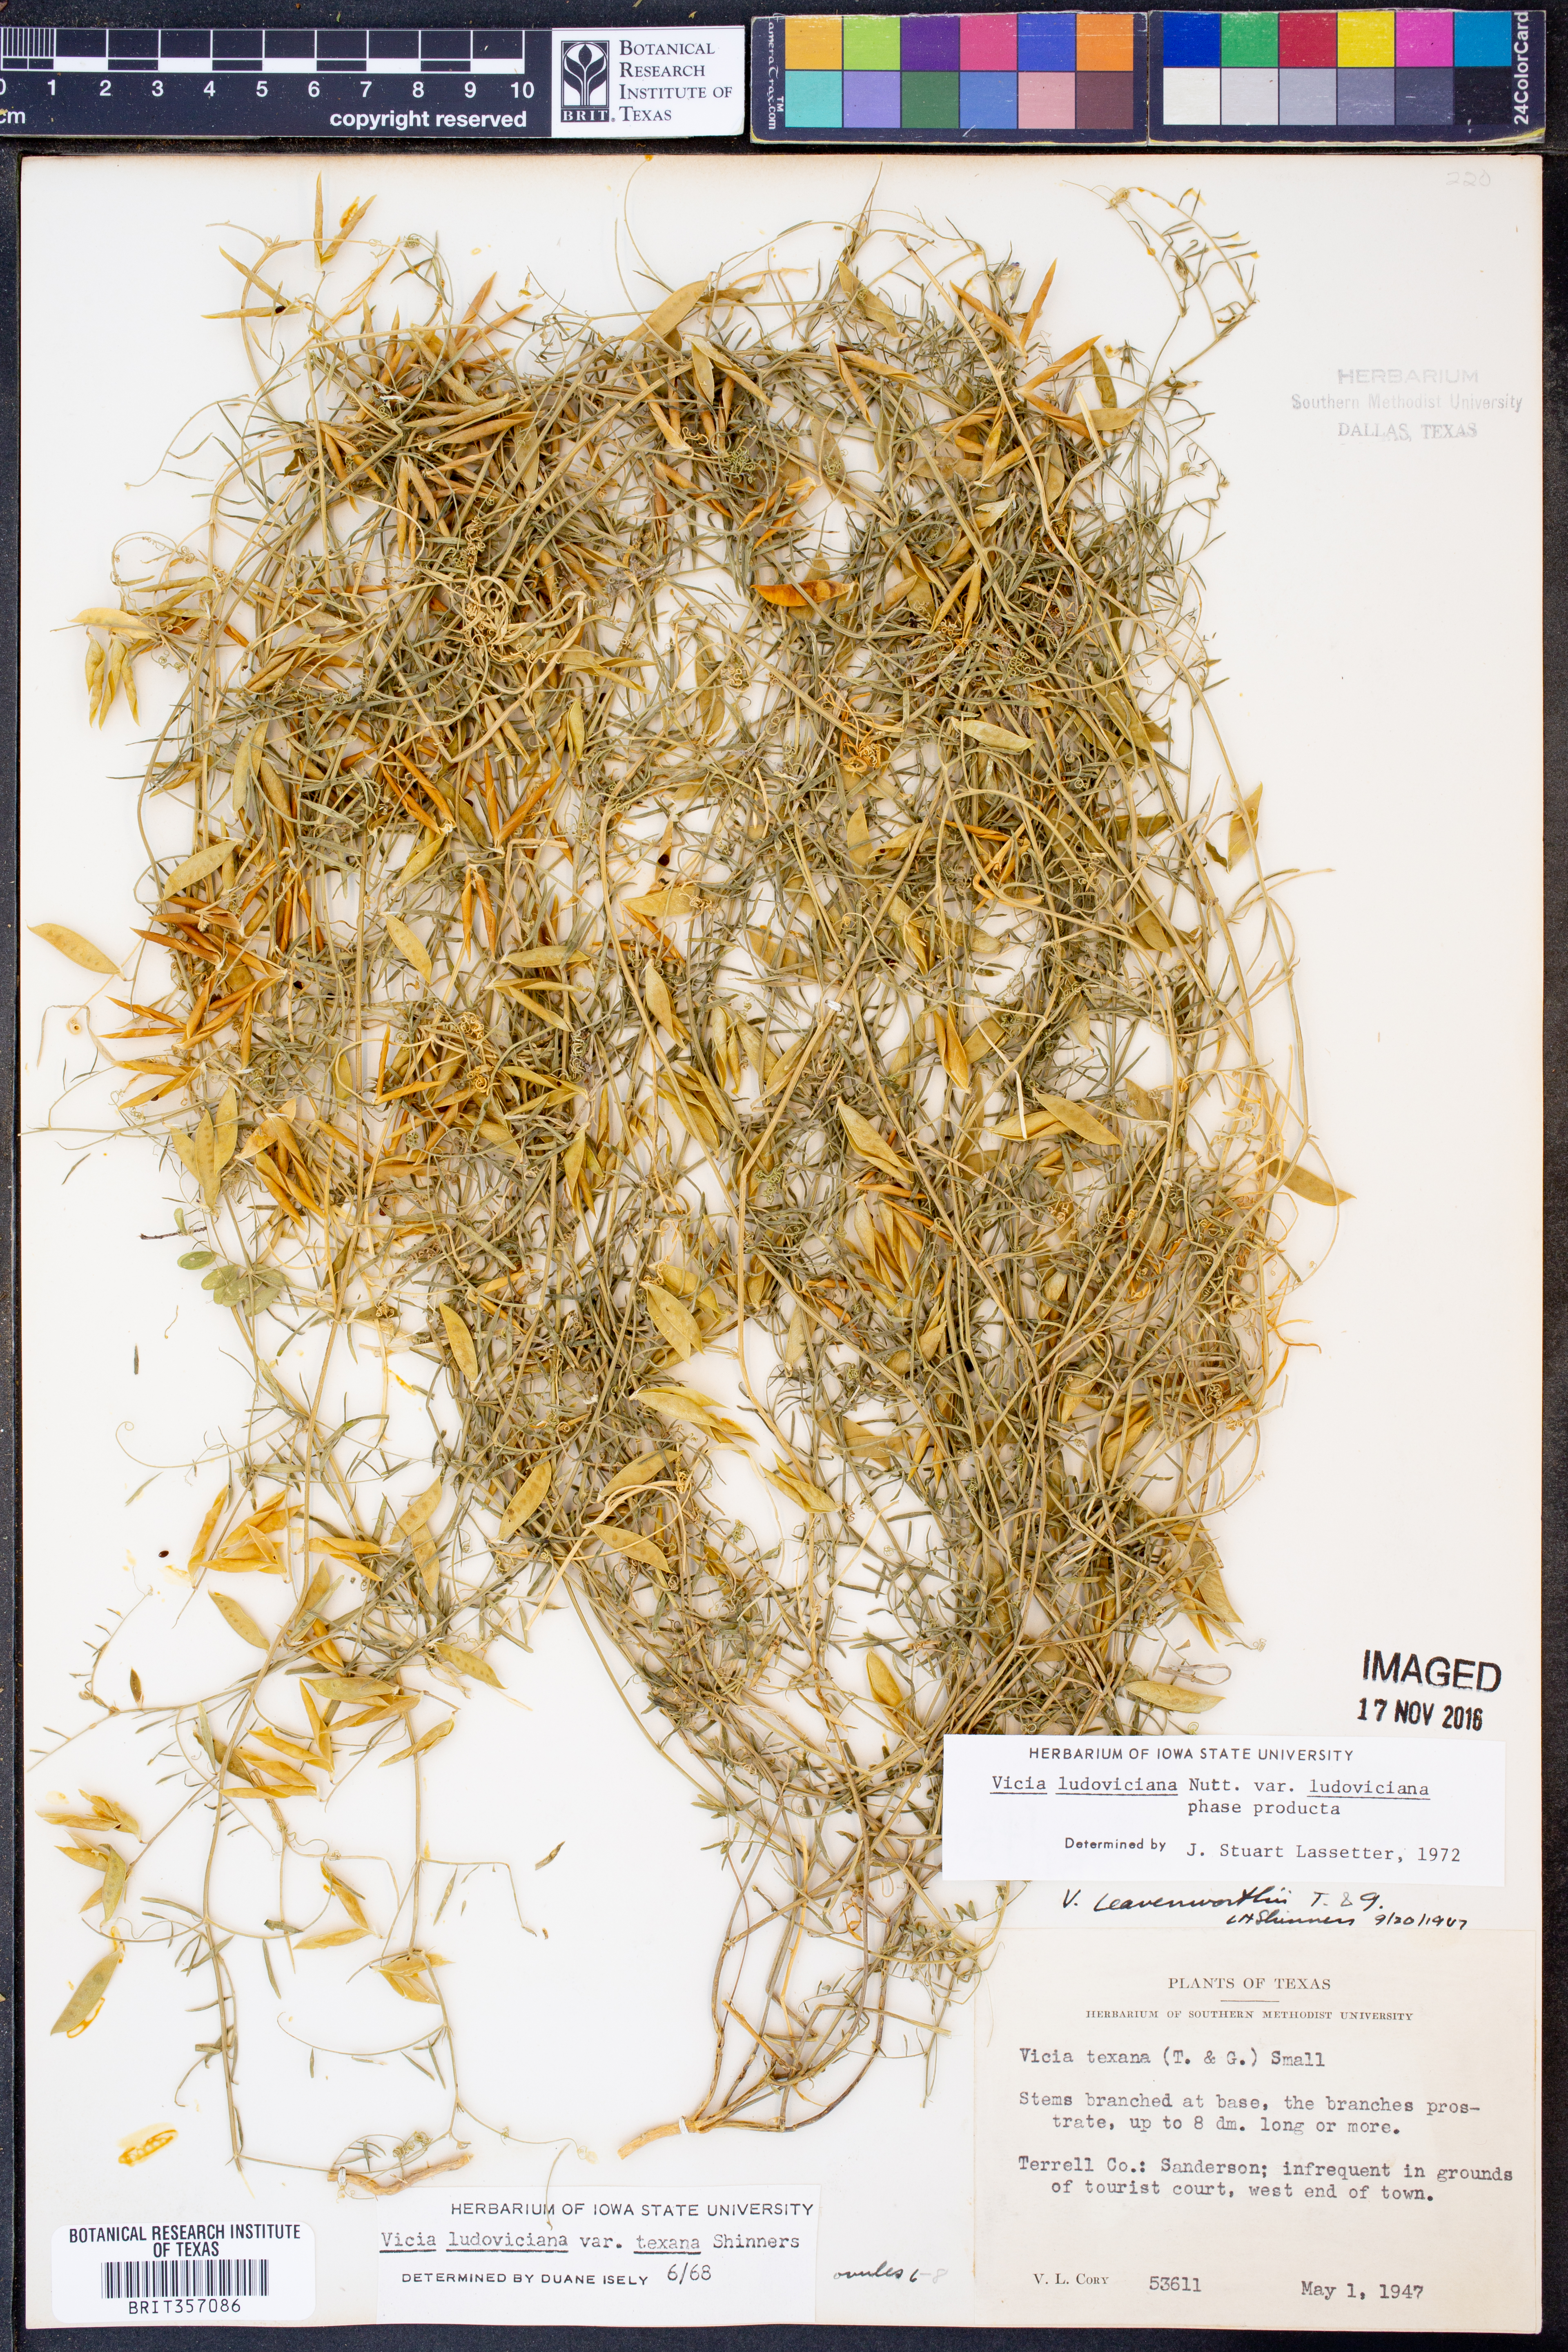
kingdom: Plantae
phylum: Tracheophyta
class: Magnoliopsida
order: Fabales
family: Fabaceae
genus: Vicia
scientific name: Vicia ludoviciana
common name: Louisiana vetch
